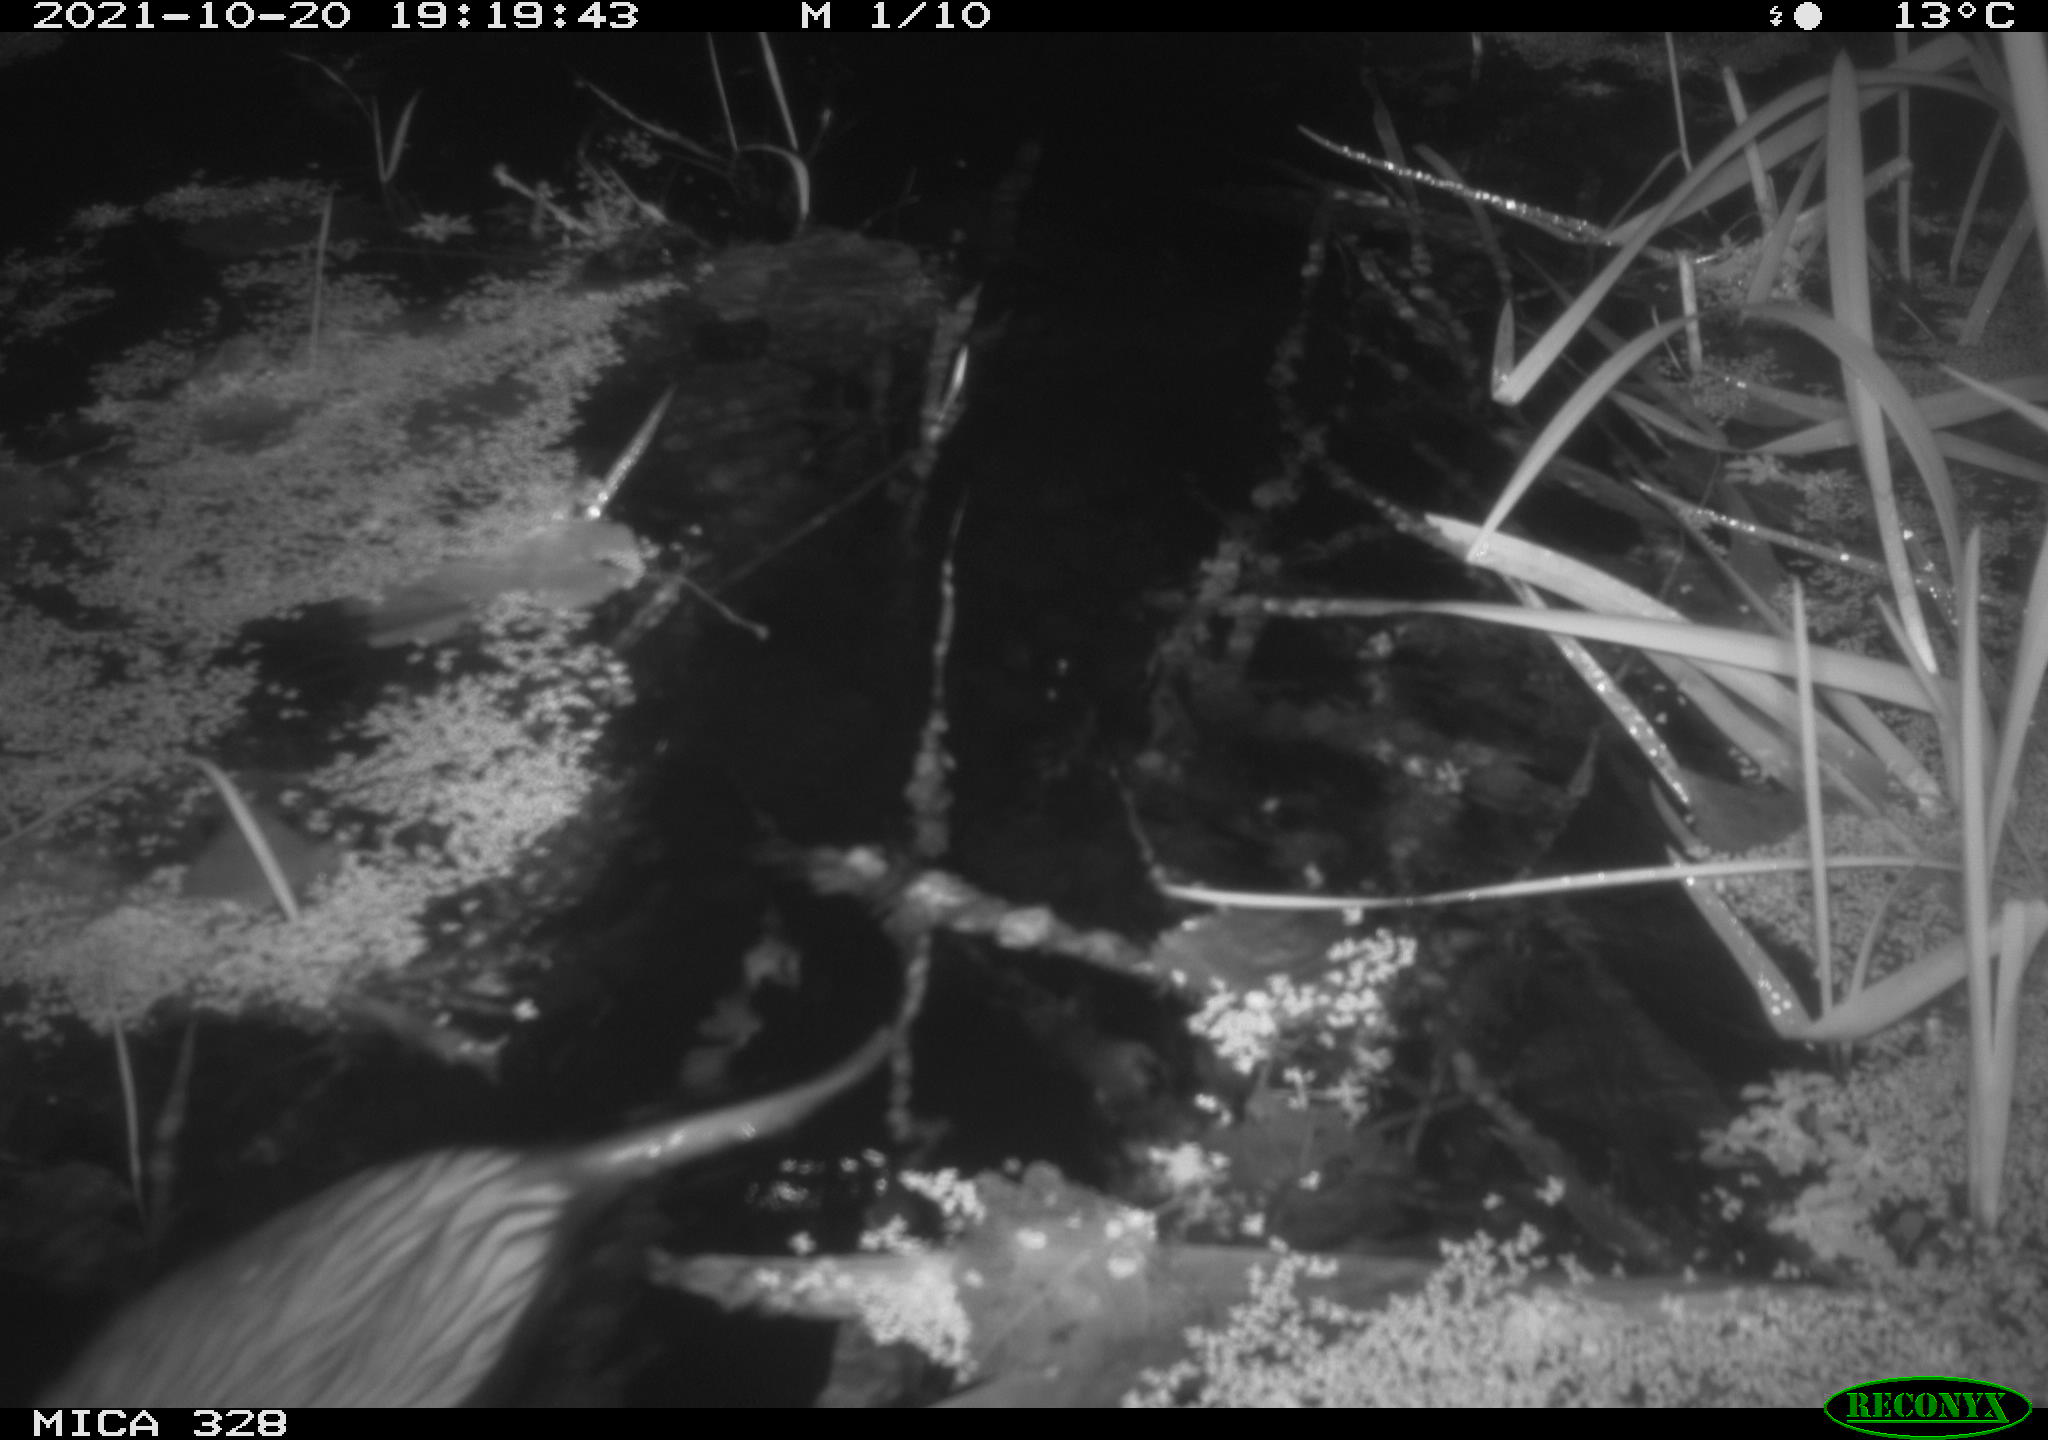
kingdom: Animalia
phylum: Chordata
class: Mammalia
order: Rodentia
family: Cricetidae
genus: Ondatra
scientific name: Ondatra zibethicus
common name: Muskrat
